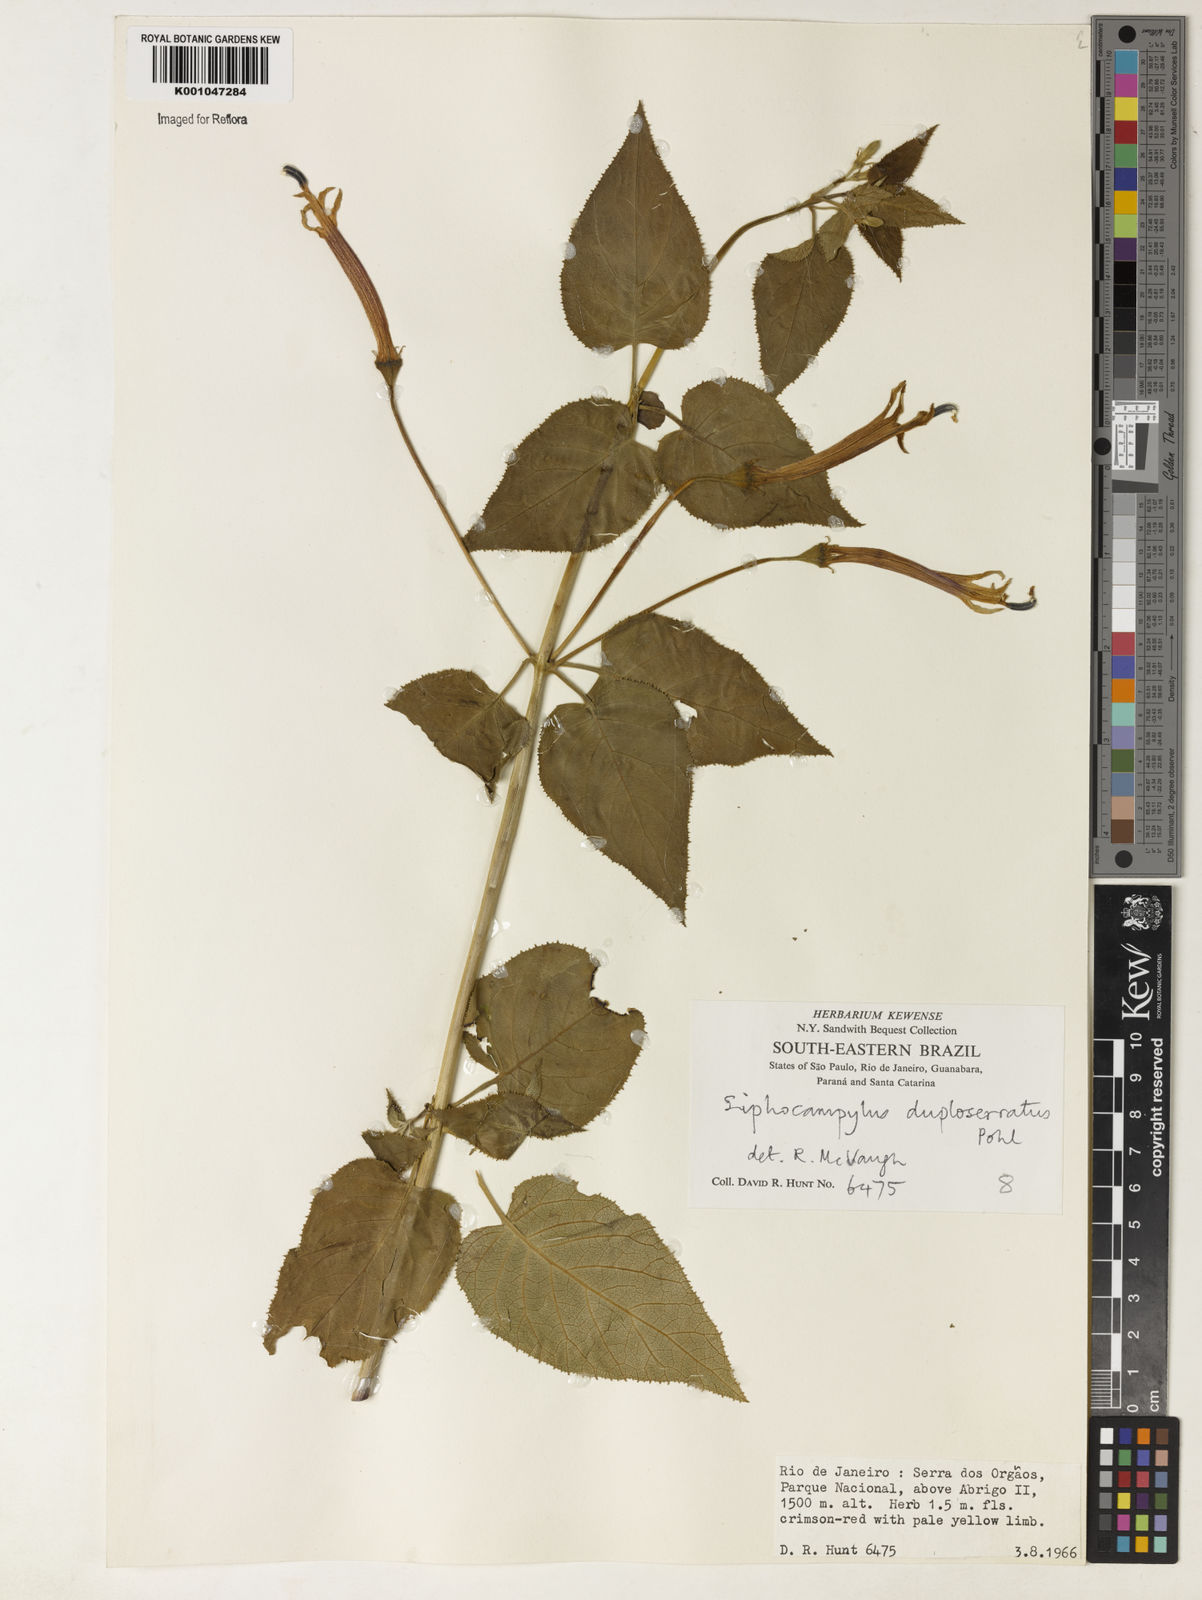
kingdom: Plantae
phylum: Tracheophyta
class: Magnoliopsida
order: Asterales
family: Campanulaceae
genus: Siphocampylus
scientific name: Siphocampylus duploserratus
